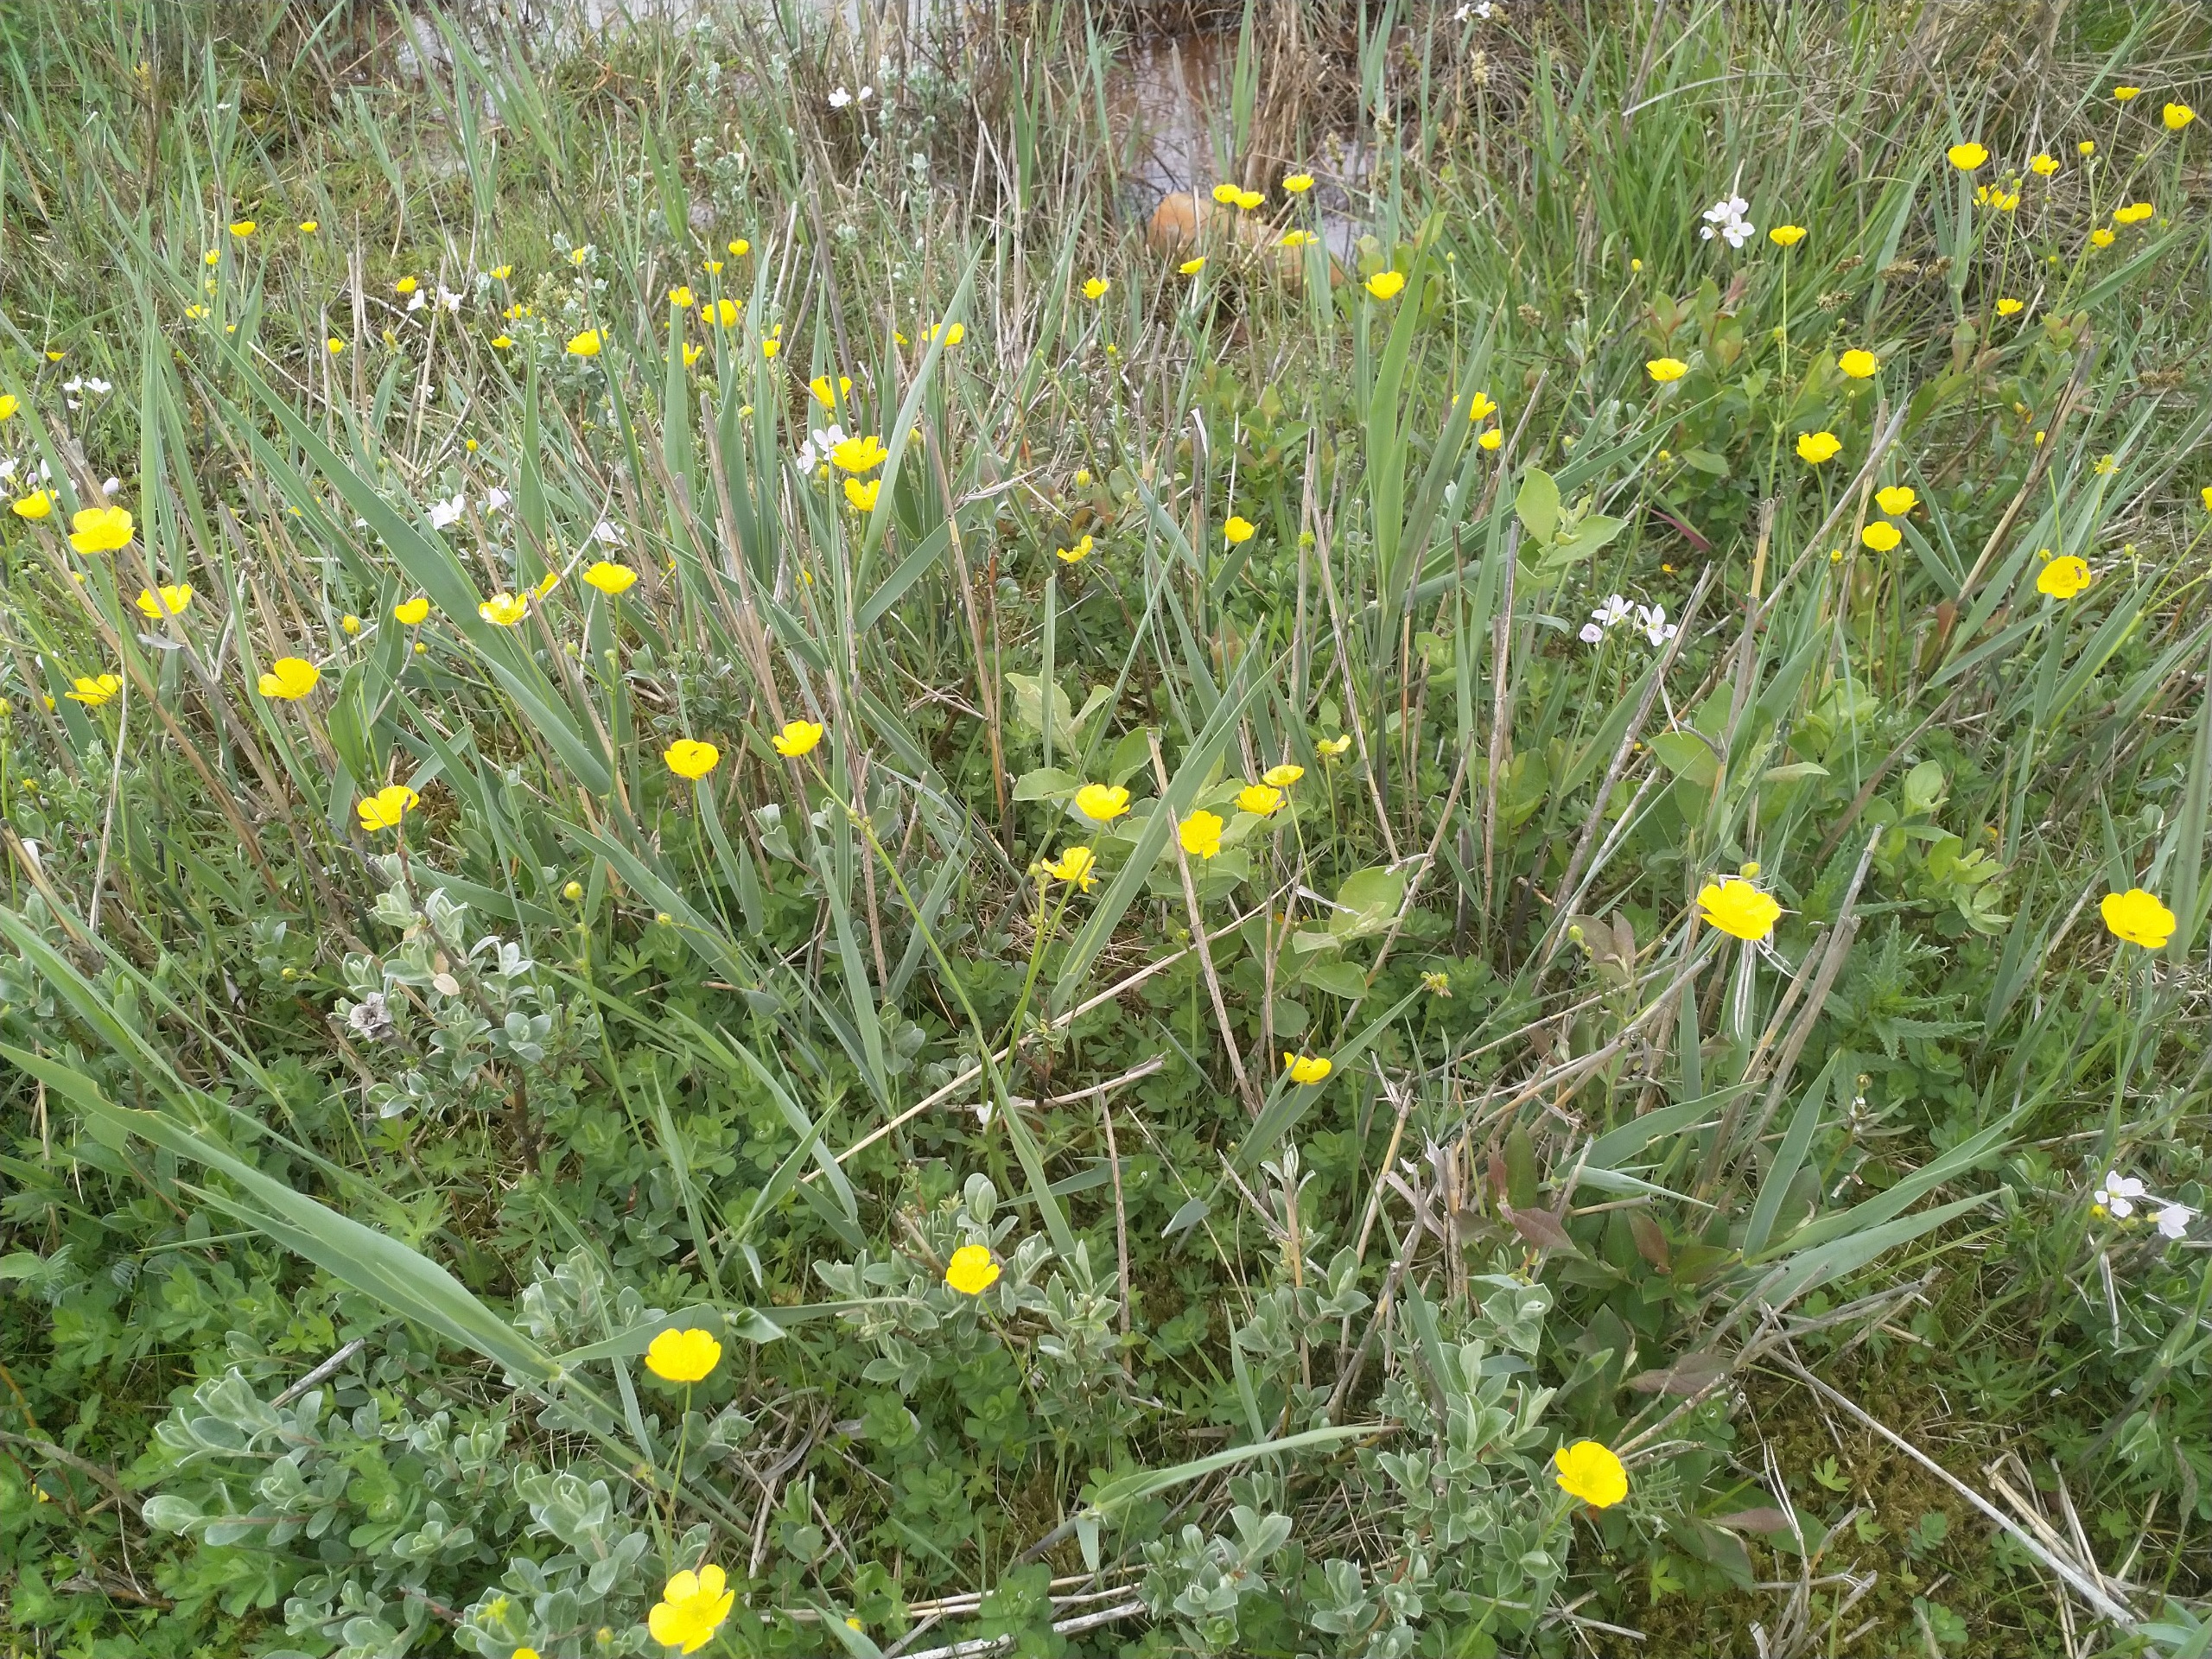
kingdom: Plantae
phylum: Tracheophyta
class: Magnoliopsida
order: Ranunculales
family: Ranunculaceae
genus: Ranunculus
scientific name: Ranunculus acris
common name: Bidende ranunkel
